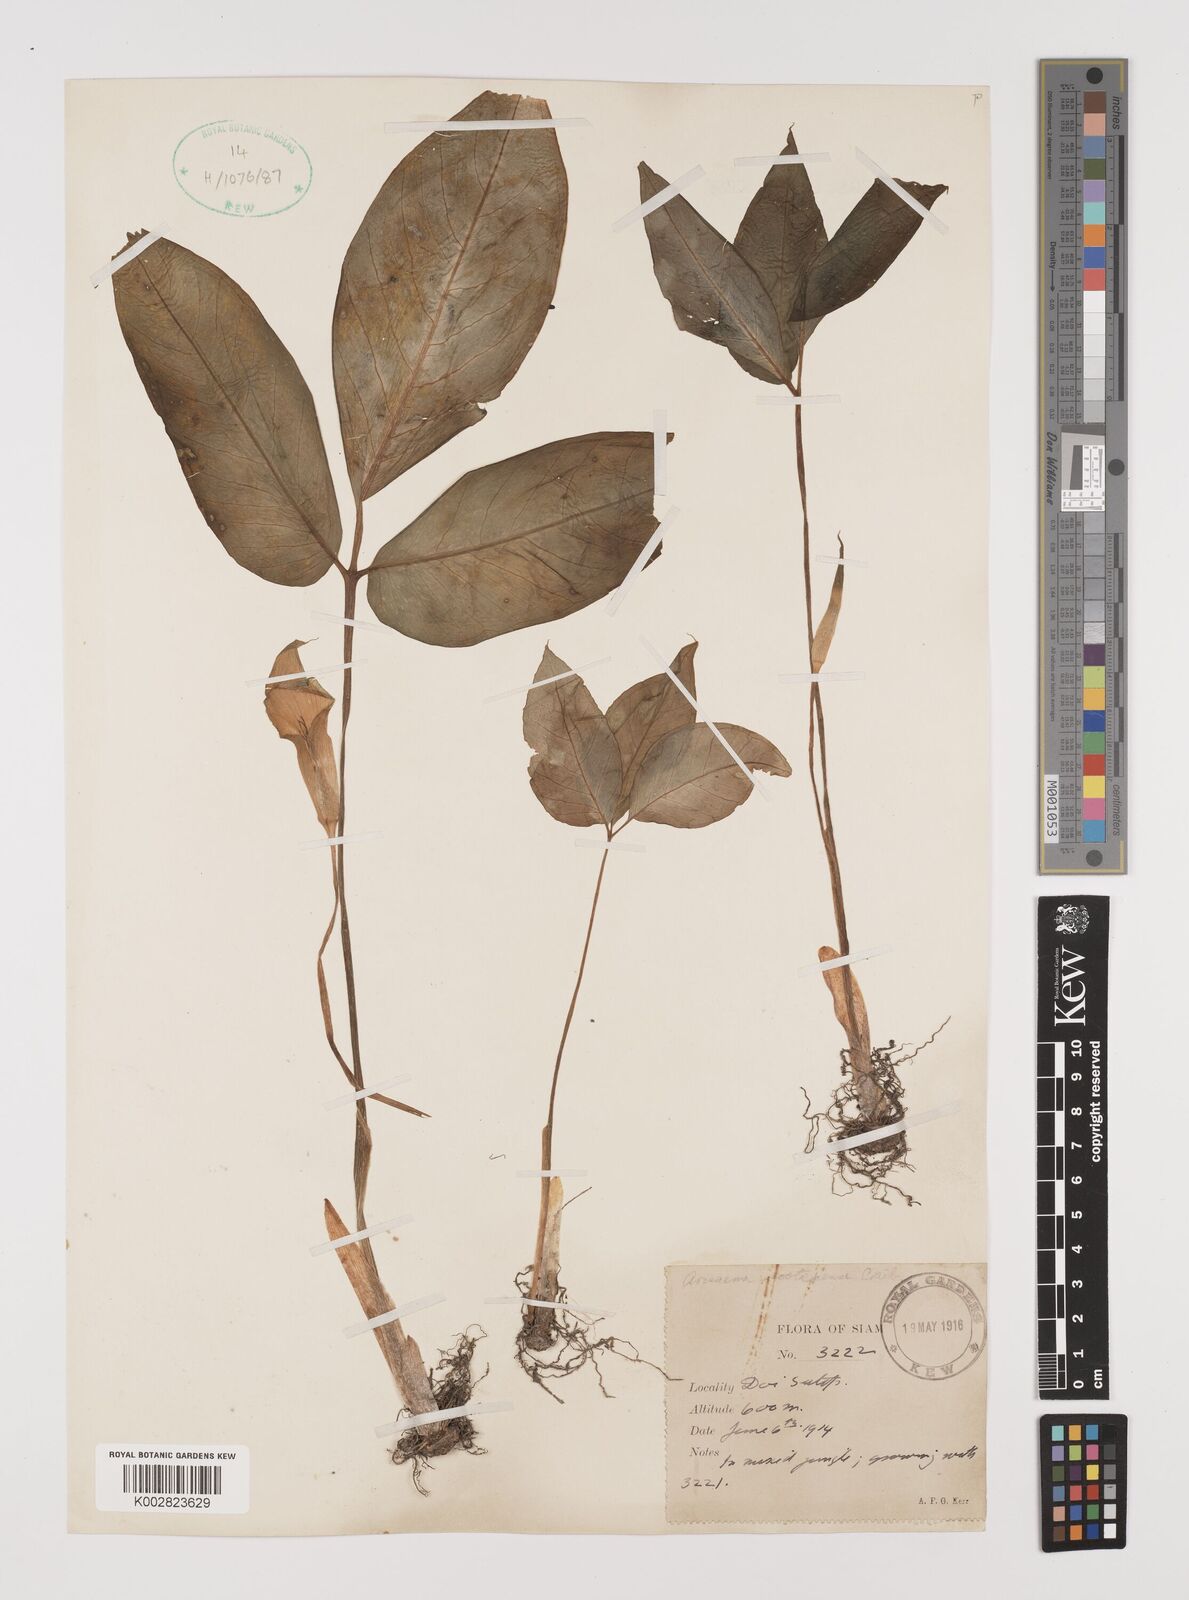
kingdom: Plantae
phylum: Tracheophyta
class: Liliopsida
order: Alismatales
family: Araceae
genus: Arisaema
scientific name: Arisaema prazeri
